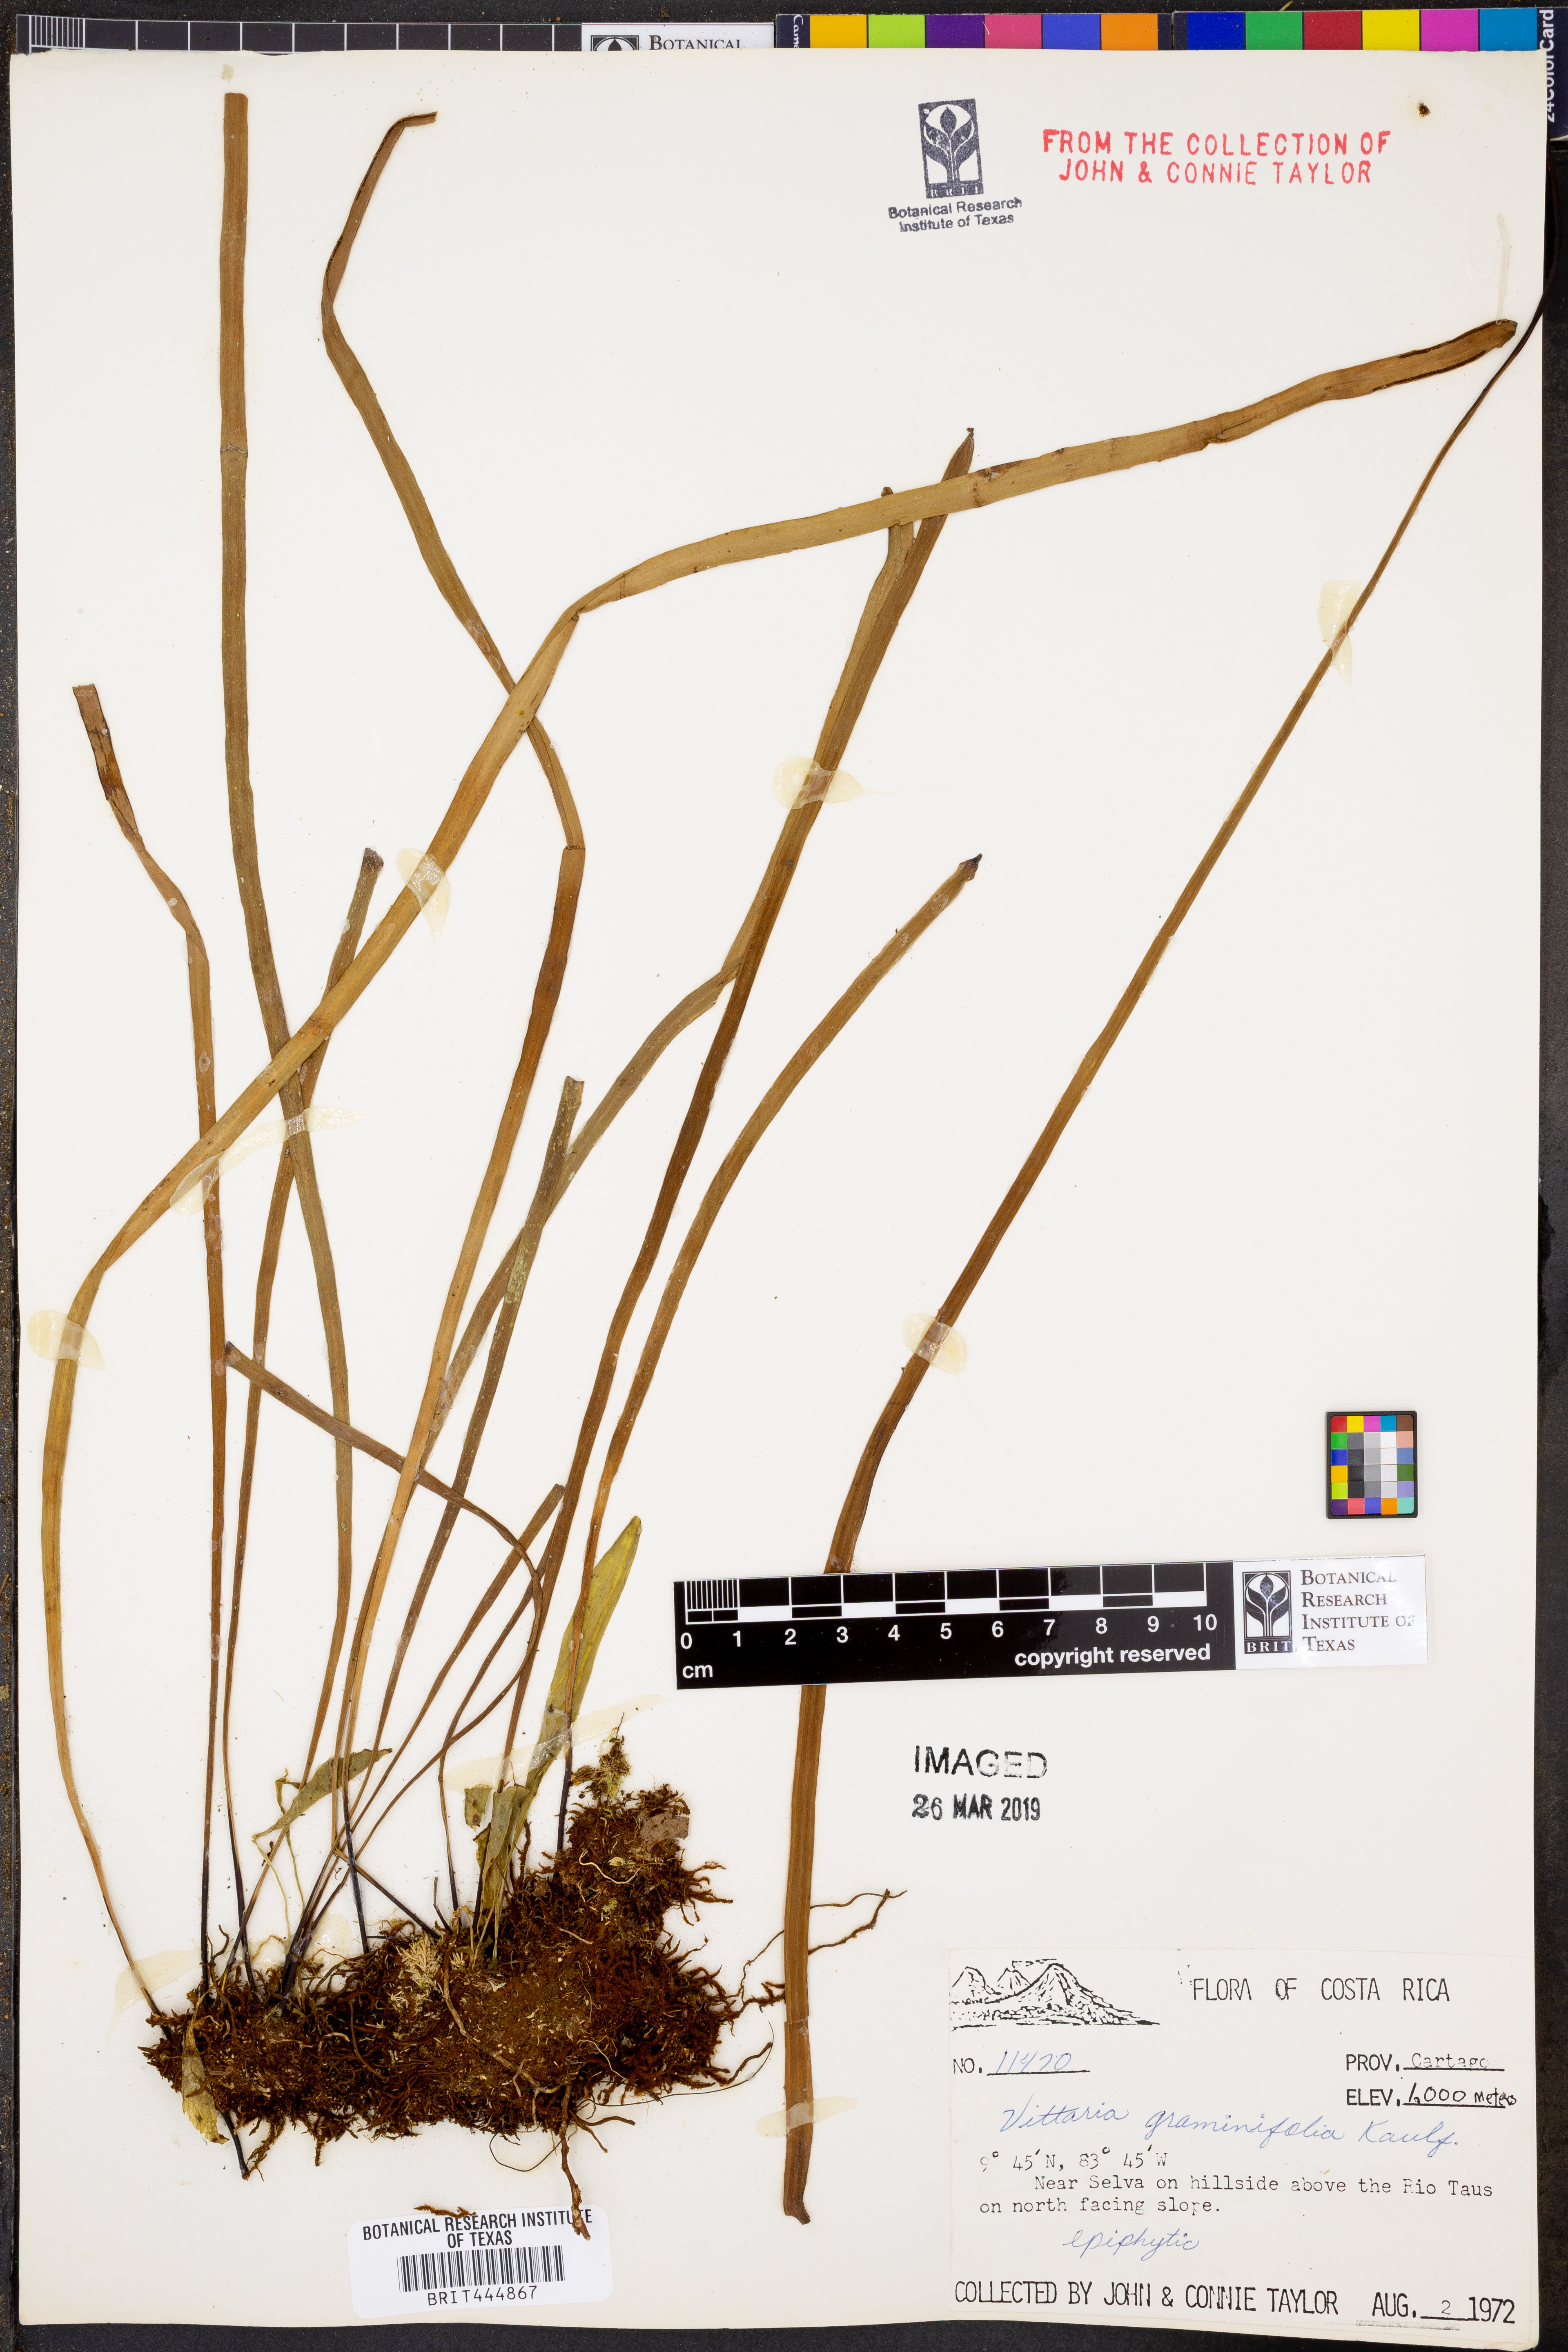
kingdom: Plantae
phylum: Tracheophyta
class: Polypodiopsida
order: Polypodiales
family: Pteridaceae
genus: Vittaria
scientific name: Vittaria graminifolia
